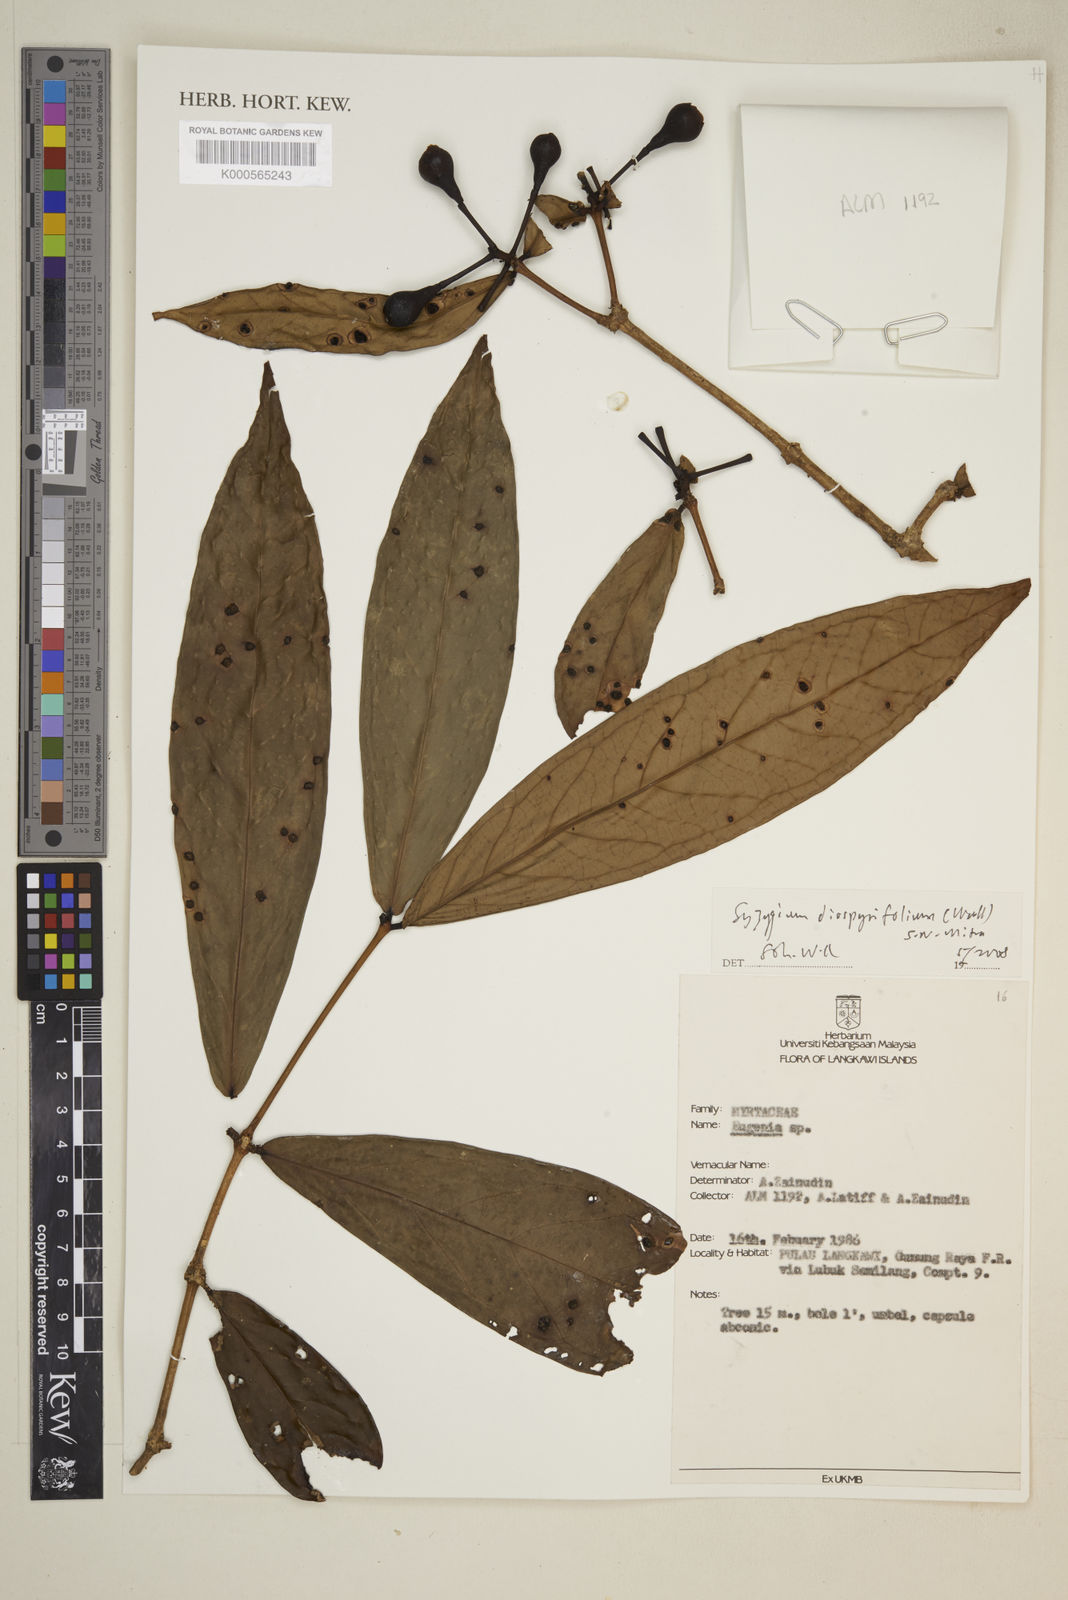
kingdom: Plantae
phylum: Tracheophyta
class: Magnoliopsida
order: Myrtales
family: Myrtaceae
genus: Syzygium
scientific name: Syzygium
